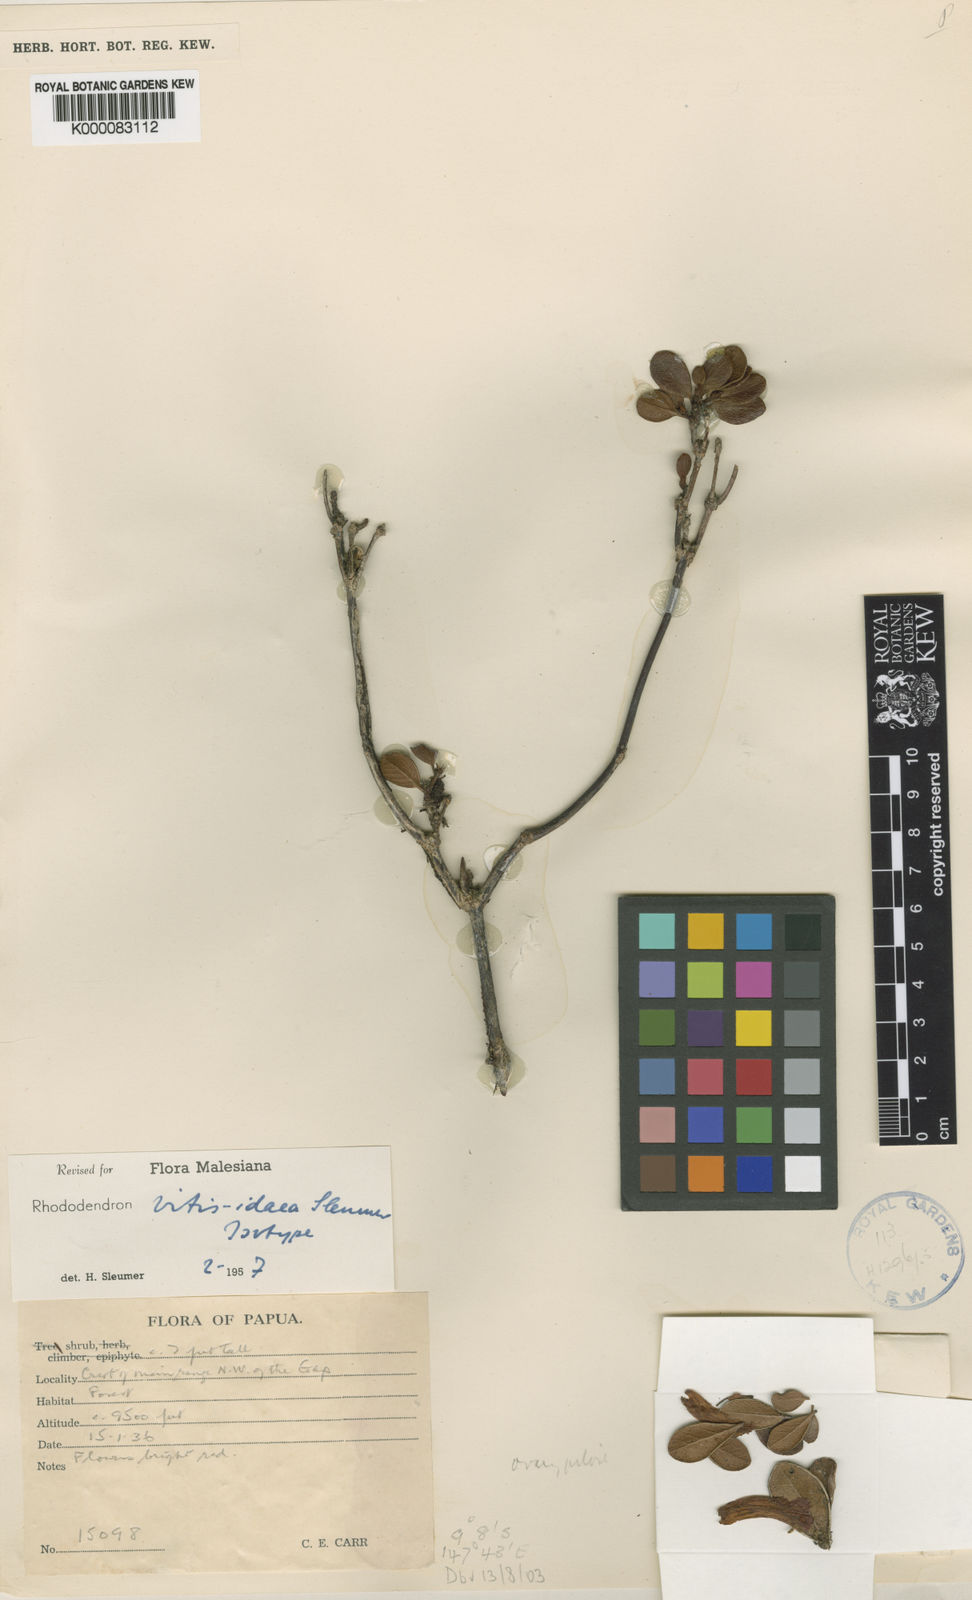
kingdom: Plantae
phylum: Tracheophyta
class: Magnoliopsida
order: Ericales
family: Ericaceae
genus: Rhododendron
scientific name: Rhododendron vitis-idaea
